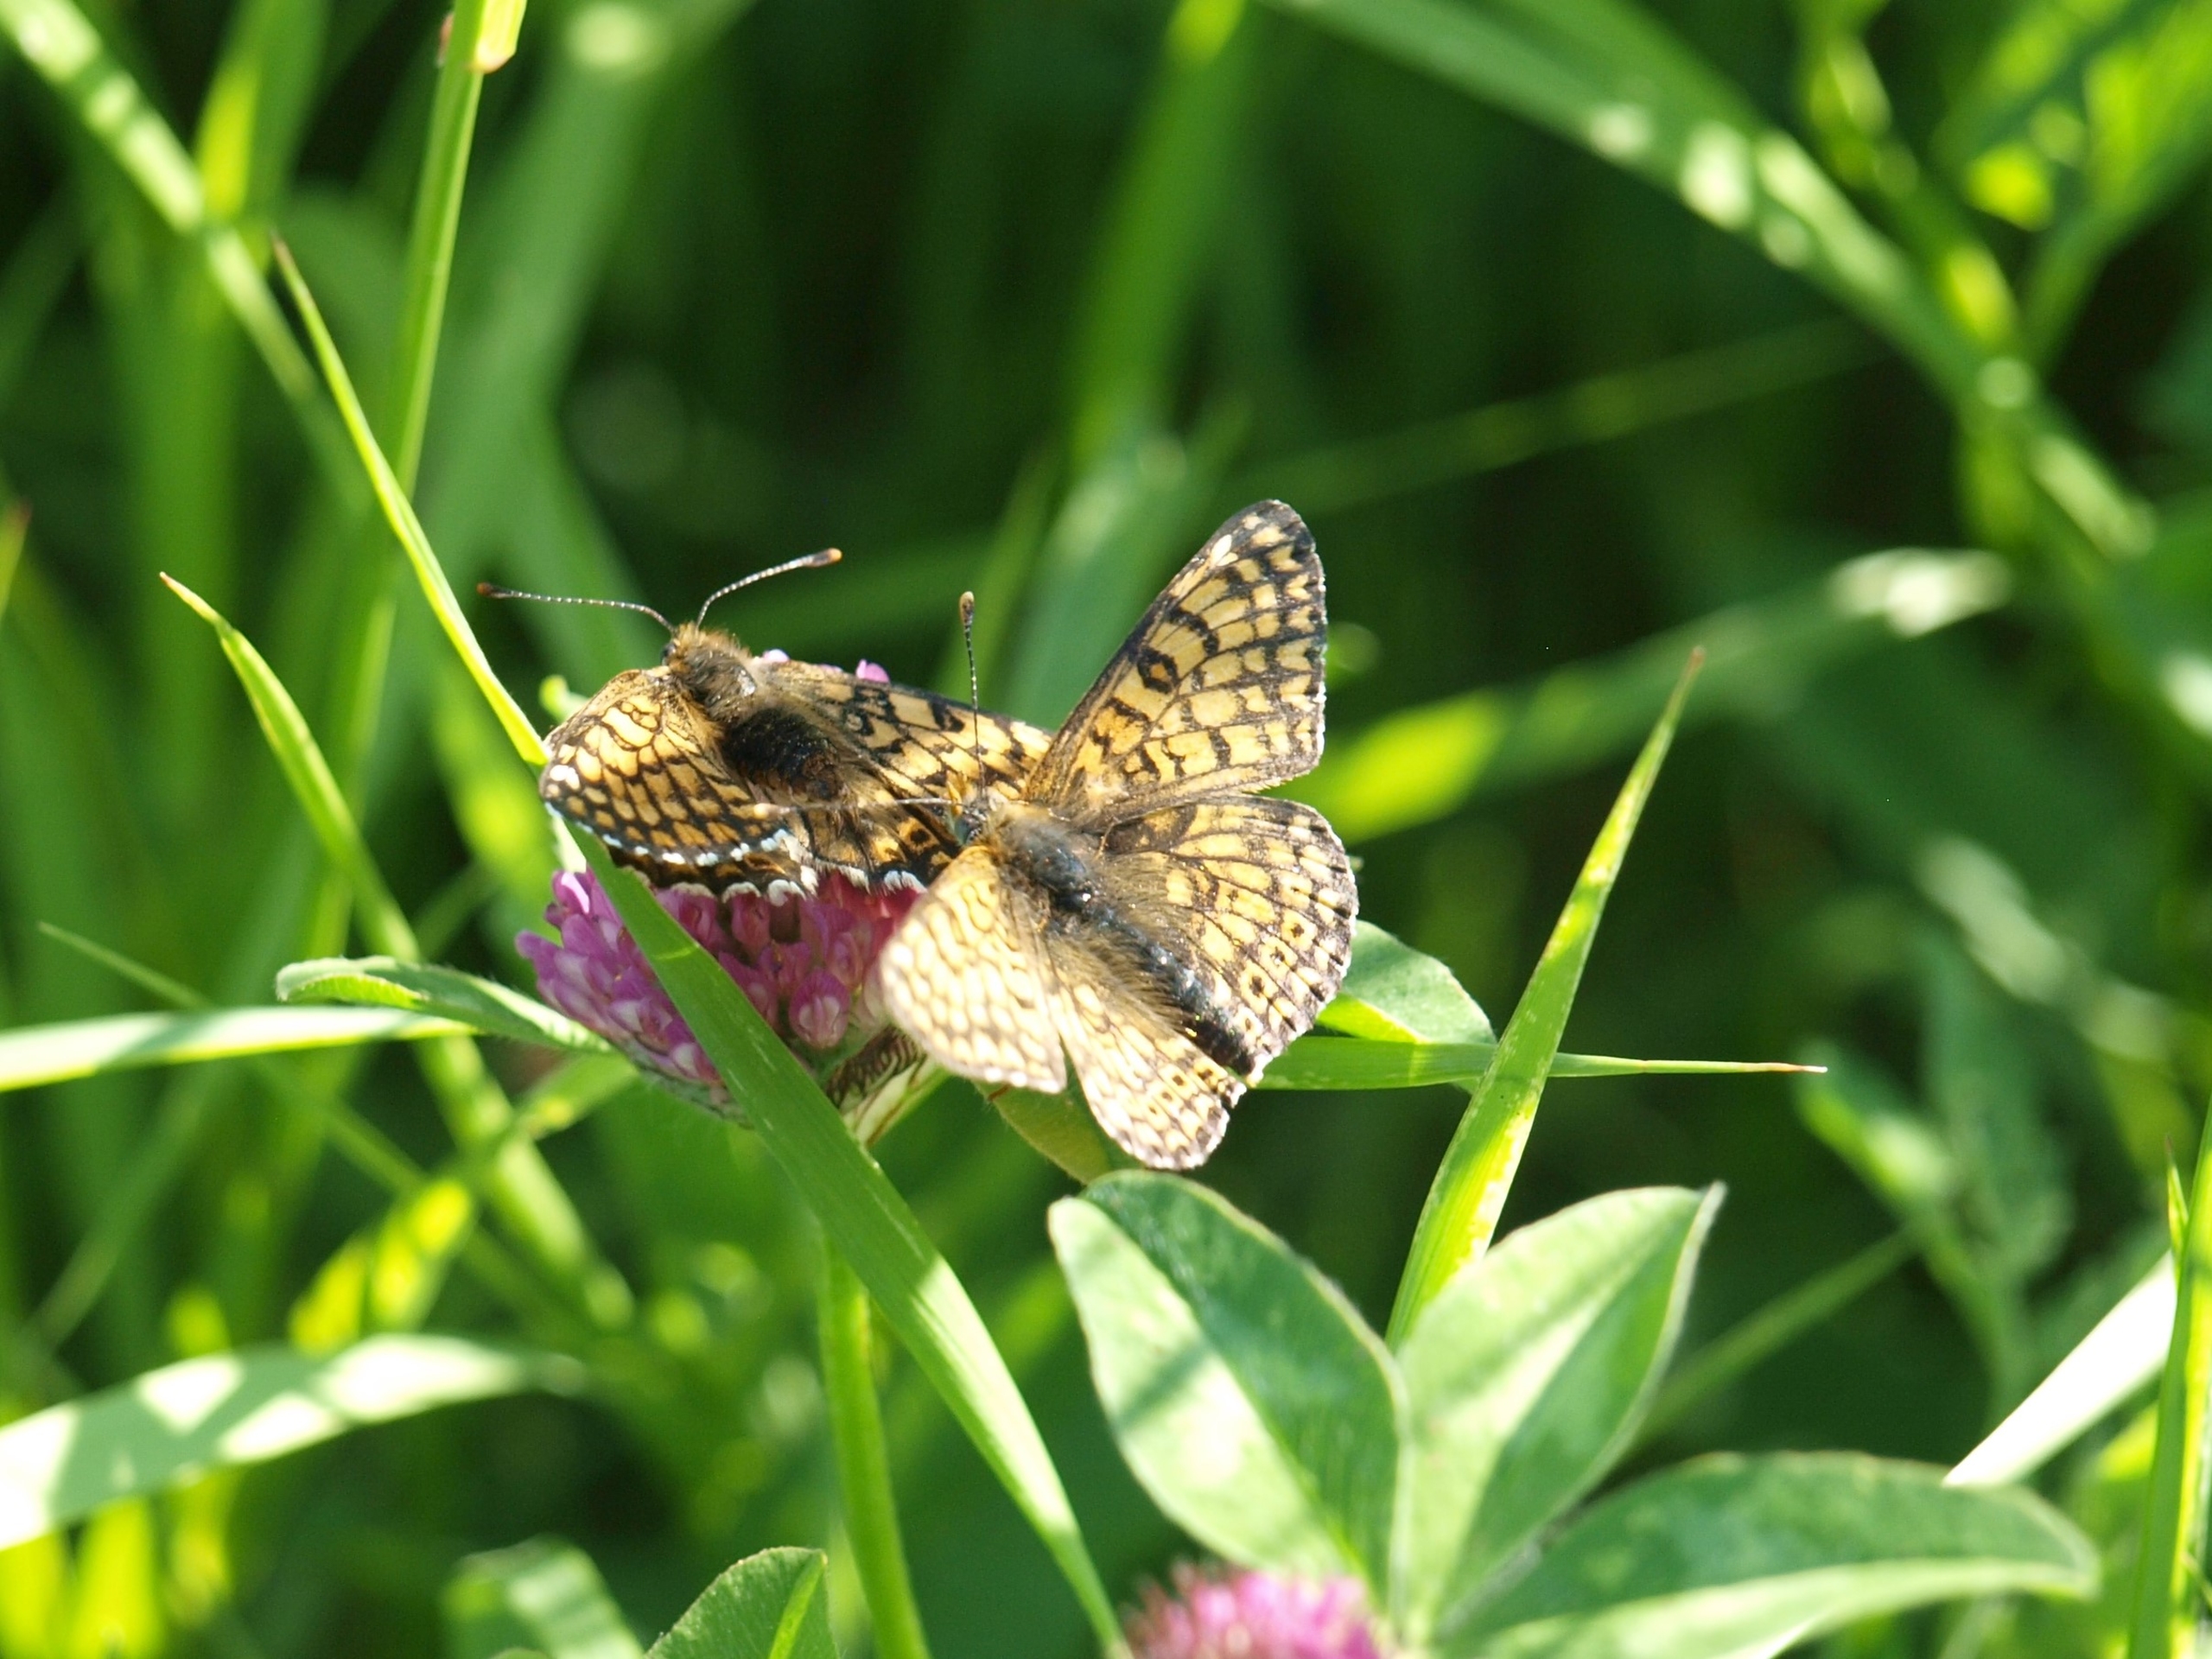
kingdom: Animalia
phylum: Arthropoda
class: Insecta
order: Lepidoptera
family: Nymphalidae
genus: Melitaea
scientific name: Melitaea cinxia
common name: Okkergul pletvinge
